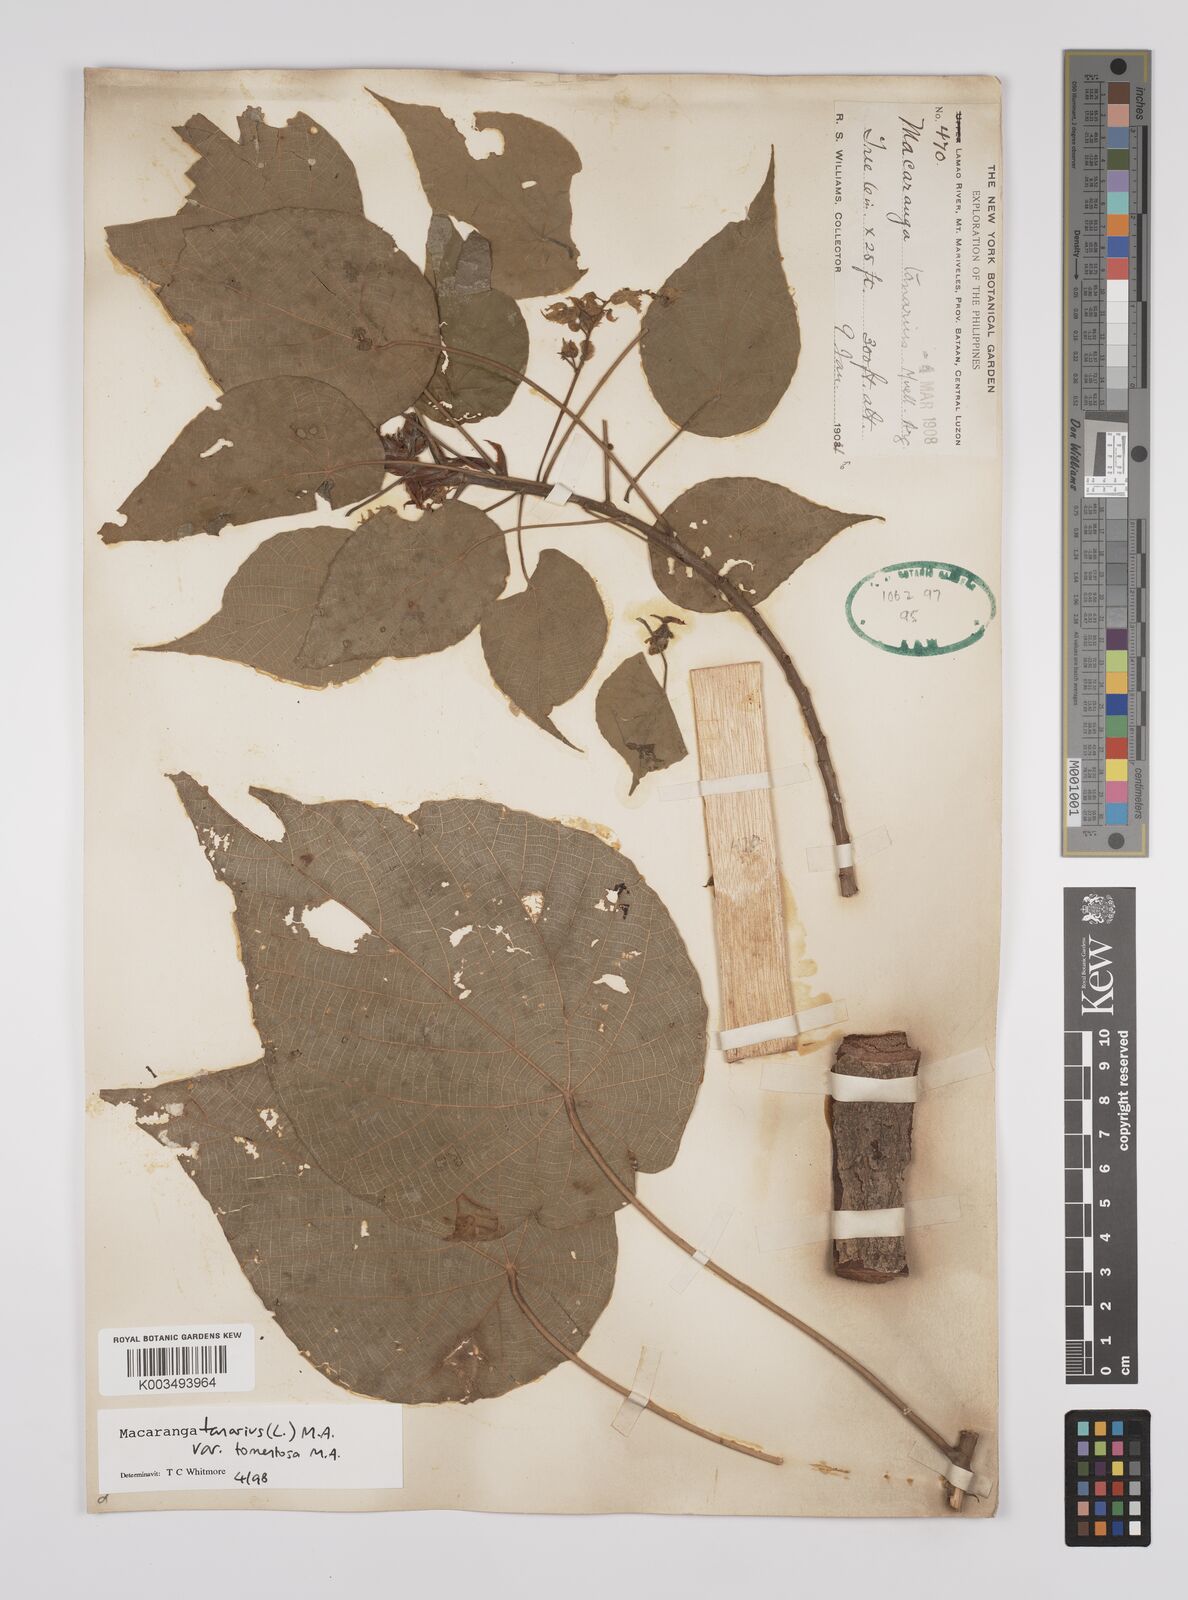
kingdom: Plantae
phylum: Tracheophyta
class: Magnoliopsida
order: Malpighiales
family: Euphorbiaceae
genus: Macaranga
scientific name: Macaranga tanarius
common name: Parasol leaf tree
